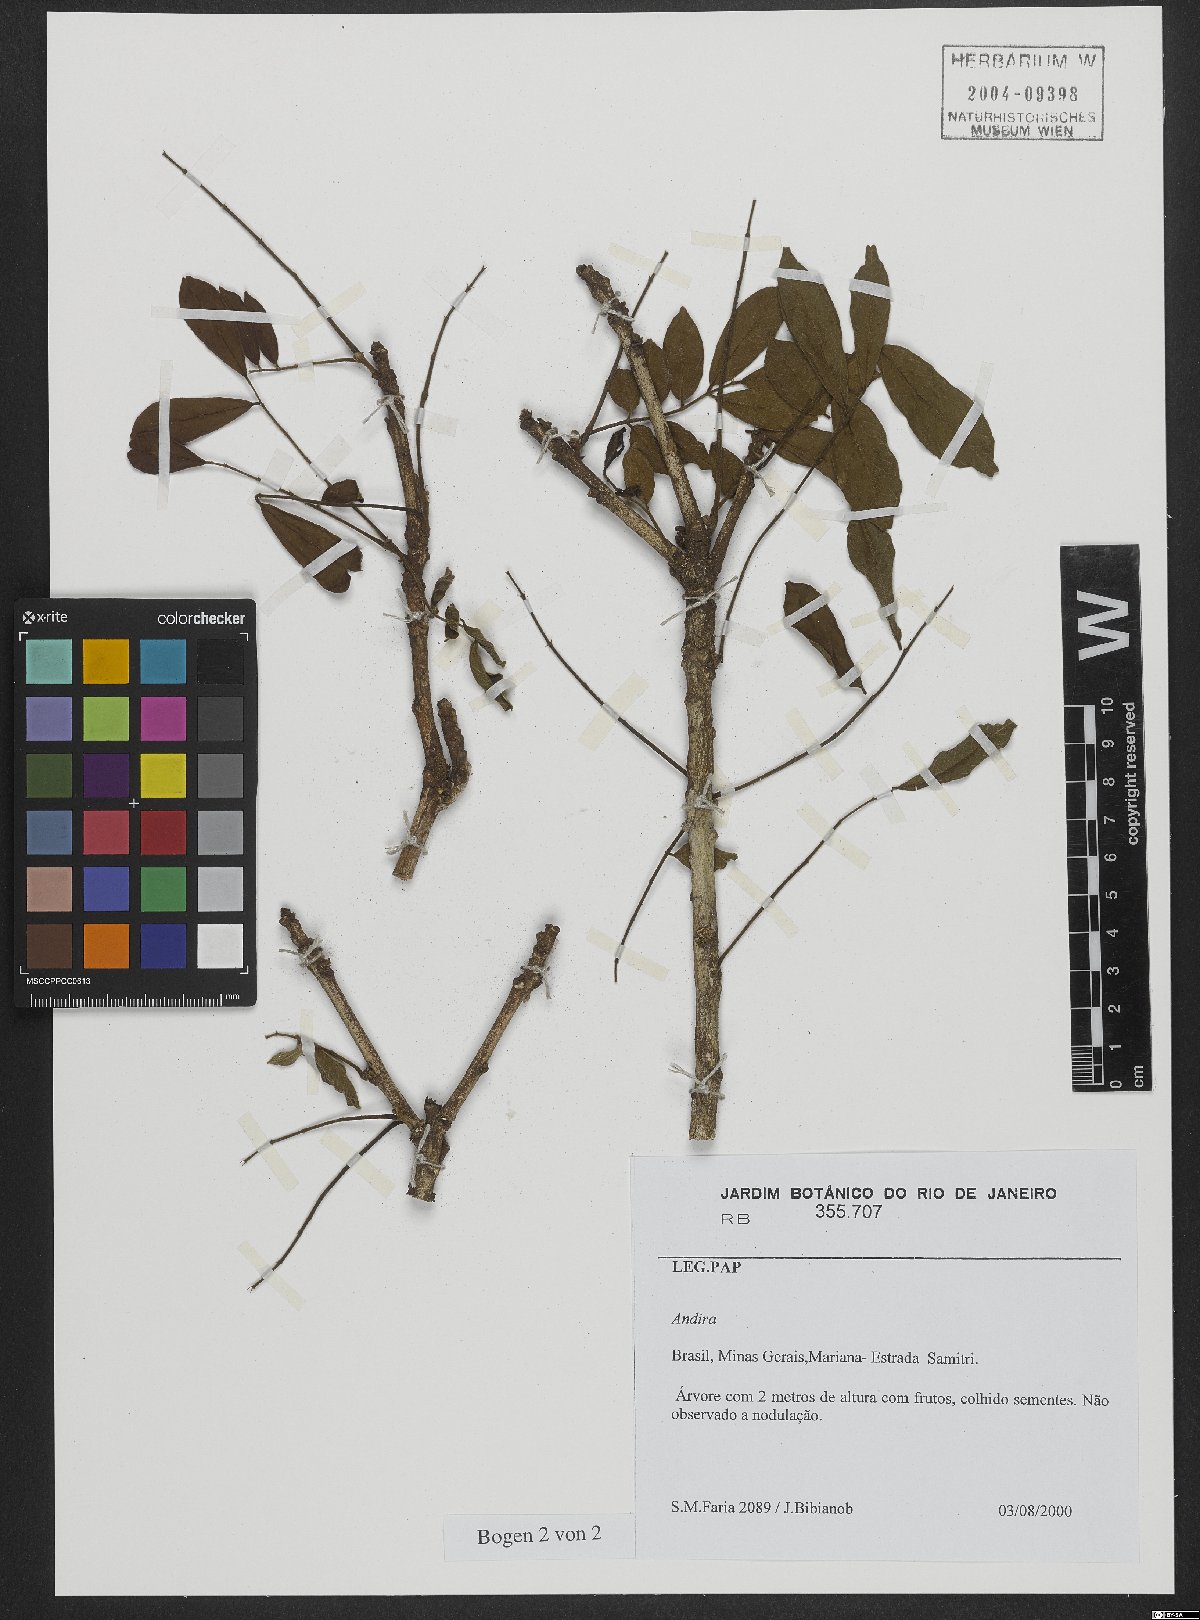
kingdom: Plantae
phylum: Tracheophyta
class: Magnoliopsida
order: Fabales
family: Fabaceae
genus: Andira
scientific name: Andira
